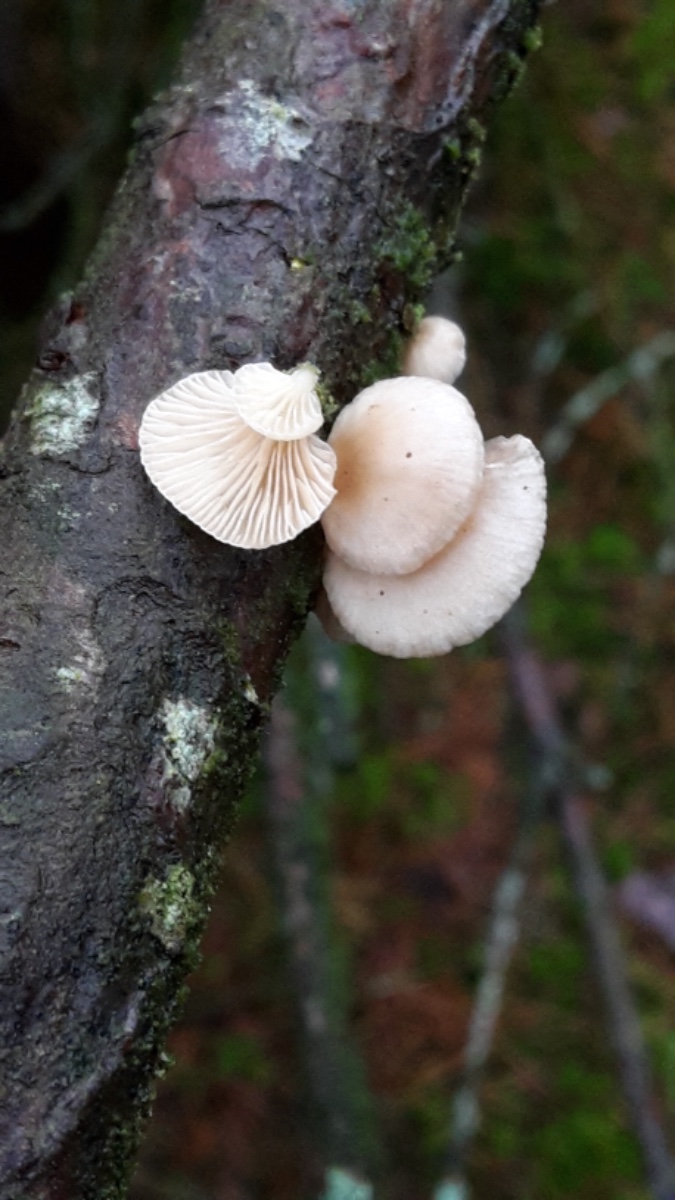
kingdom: Fungi
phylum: Basidiomycota
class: Agaricomycetes
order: Agaricales
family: Mycenaceae
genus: Panellus
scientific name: Panellus mitis
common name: mild epaulethat
